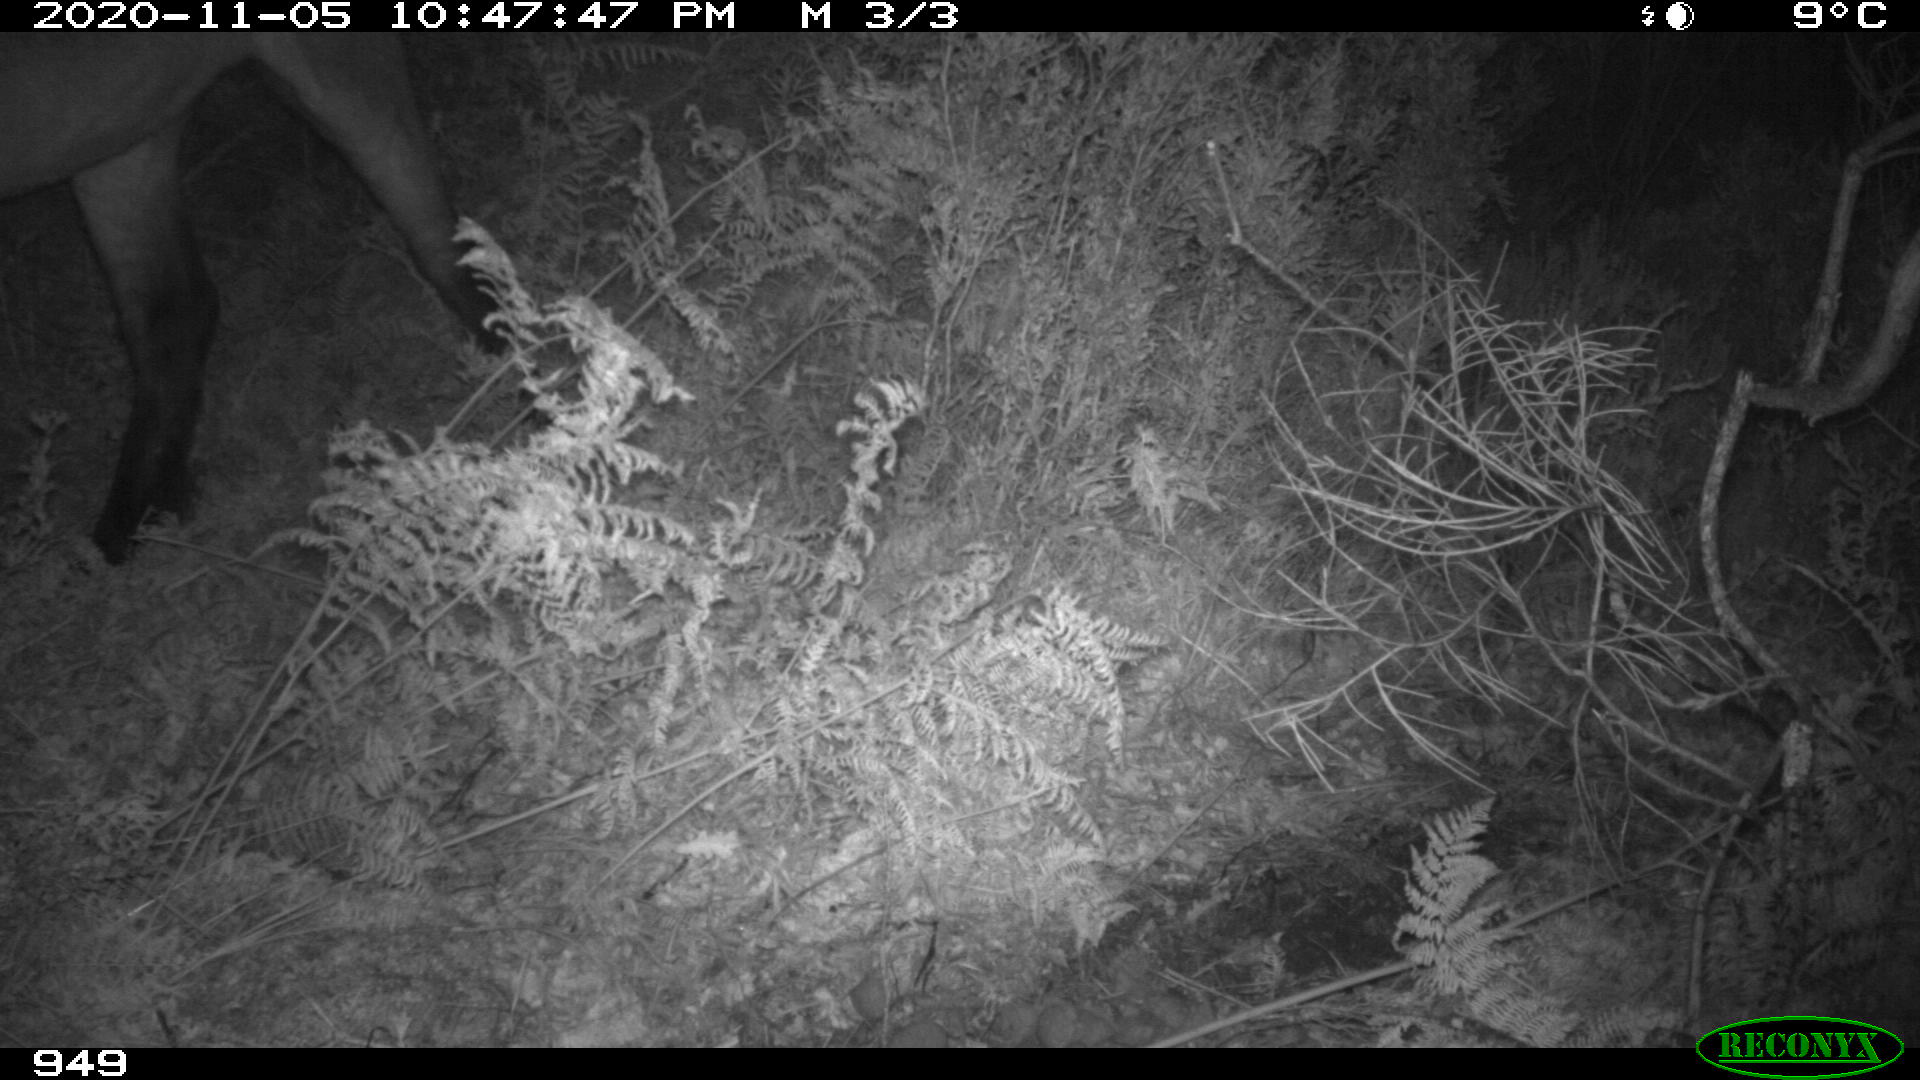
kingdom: Animalia
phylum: Chordata
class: Mammalia
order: Perissodactyla
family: Equidae
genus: Equus
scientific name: Equus caballus
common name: Horse
